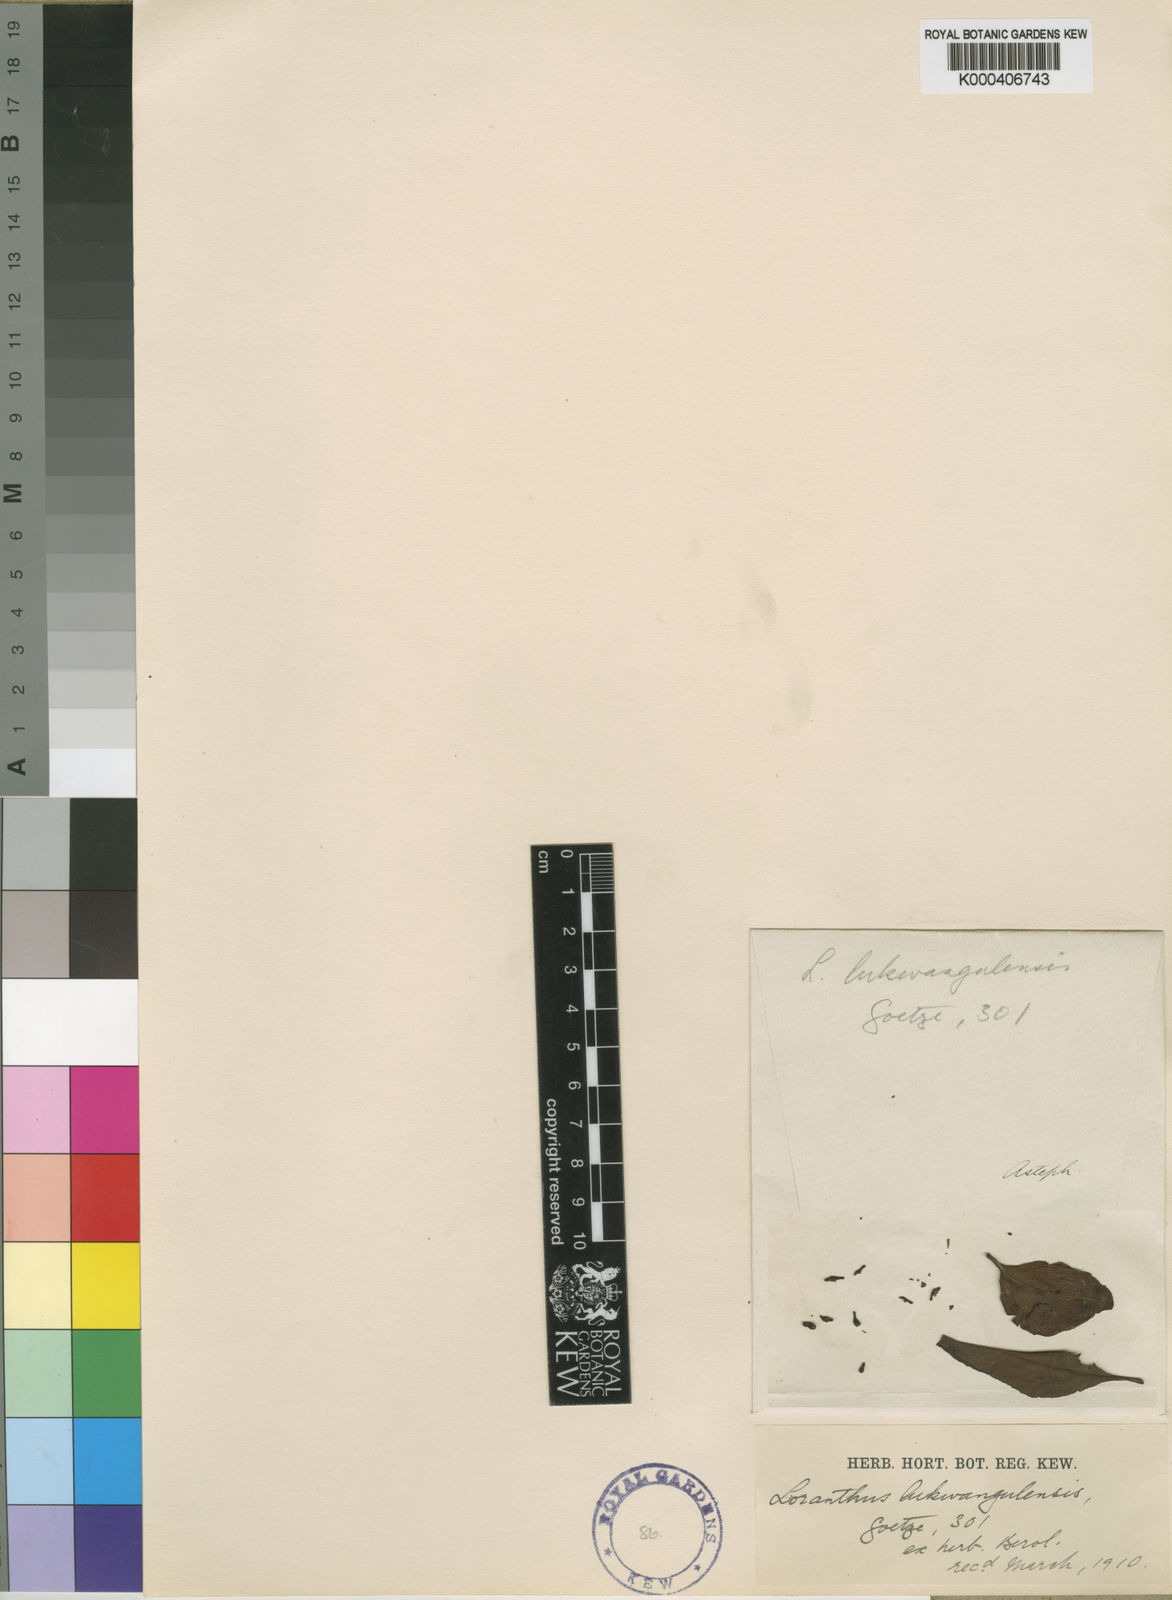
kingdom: Plantae
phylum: Tracheophyta
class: Magnoliopsida
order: Santalales
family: Loranthaceae
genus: Englerina
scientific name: Englerina inaequilatera
